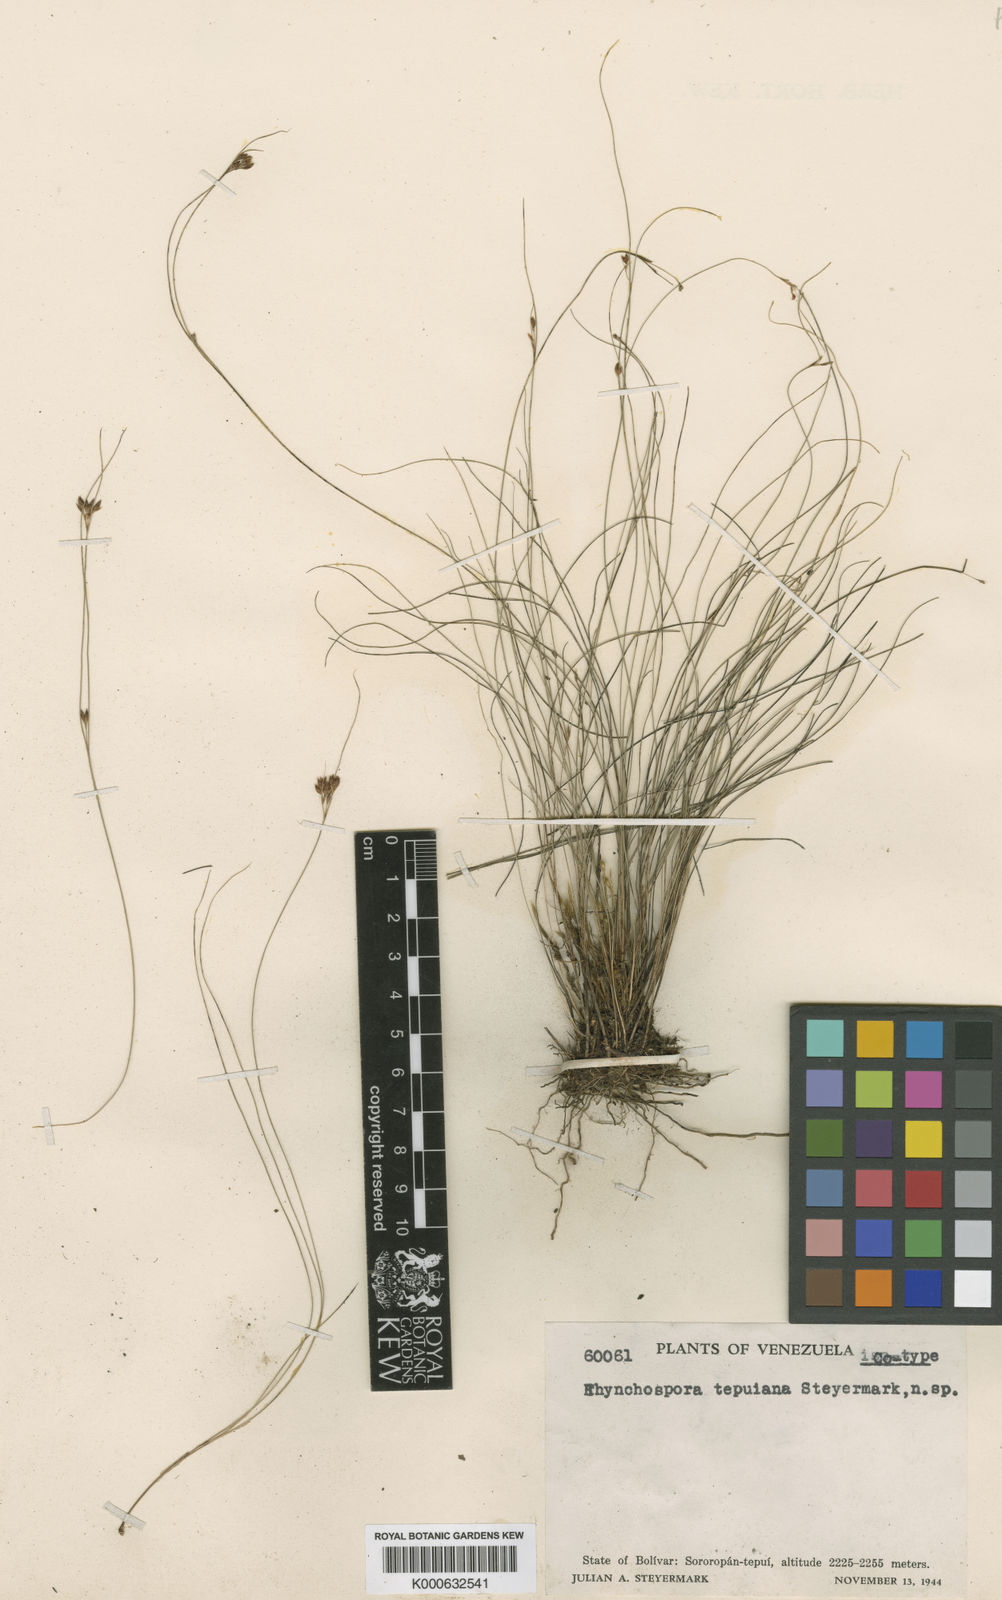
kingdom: Plantae
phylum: Tracheophyta
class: Liliopsida
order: Poales
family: Cyperaceae
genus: Rhynchospora
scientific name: Rhynchospora tepuiana
